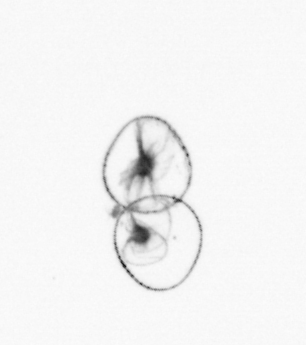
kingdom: Chromista
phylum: Myzozoa
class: Dinophyceae
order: Noctilucales
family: Noctilucaceae
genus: Noctiluca
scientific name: Noctiluca scintillans
